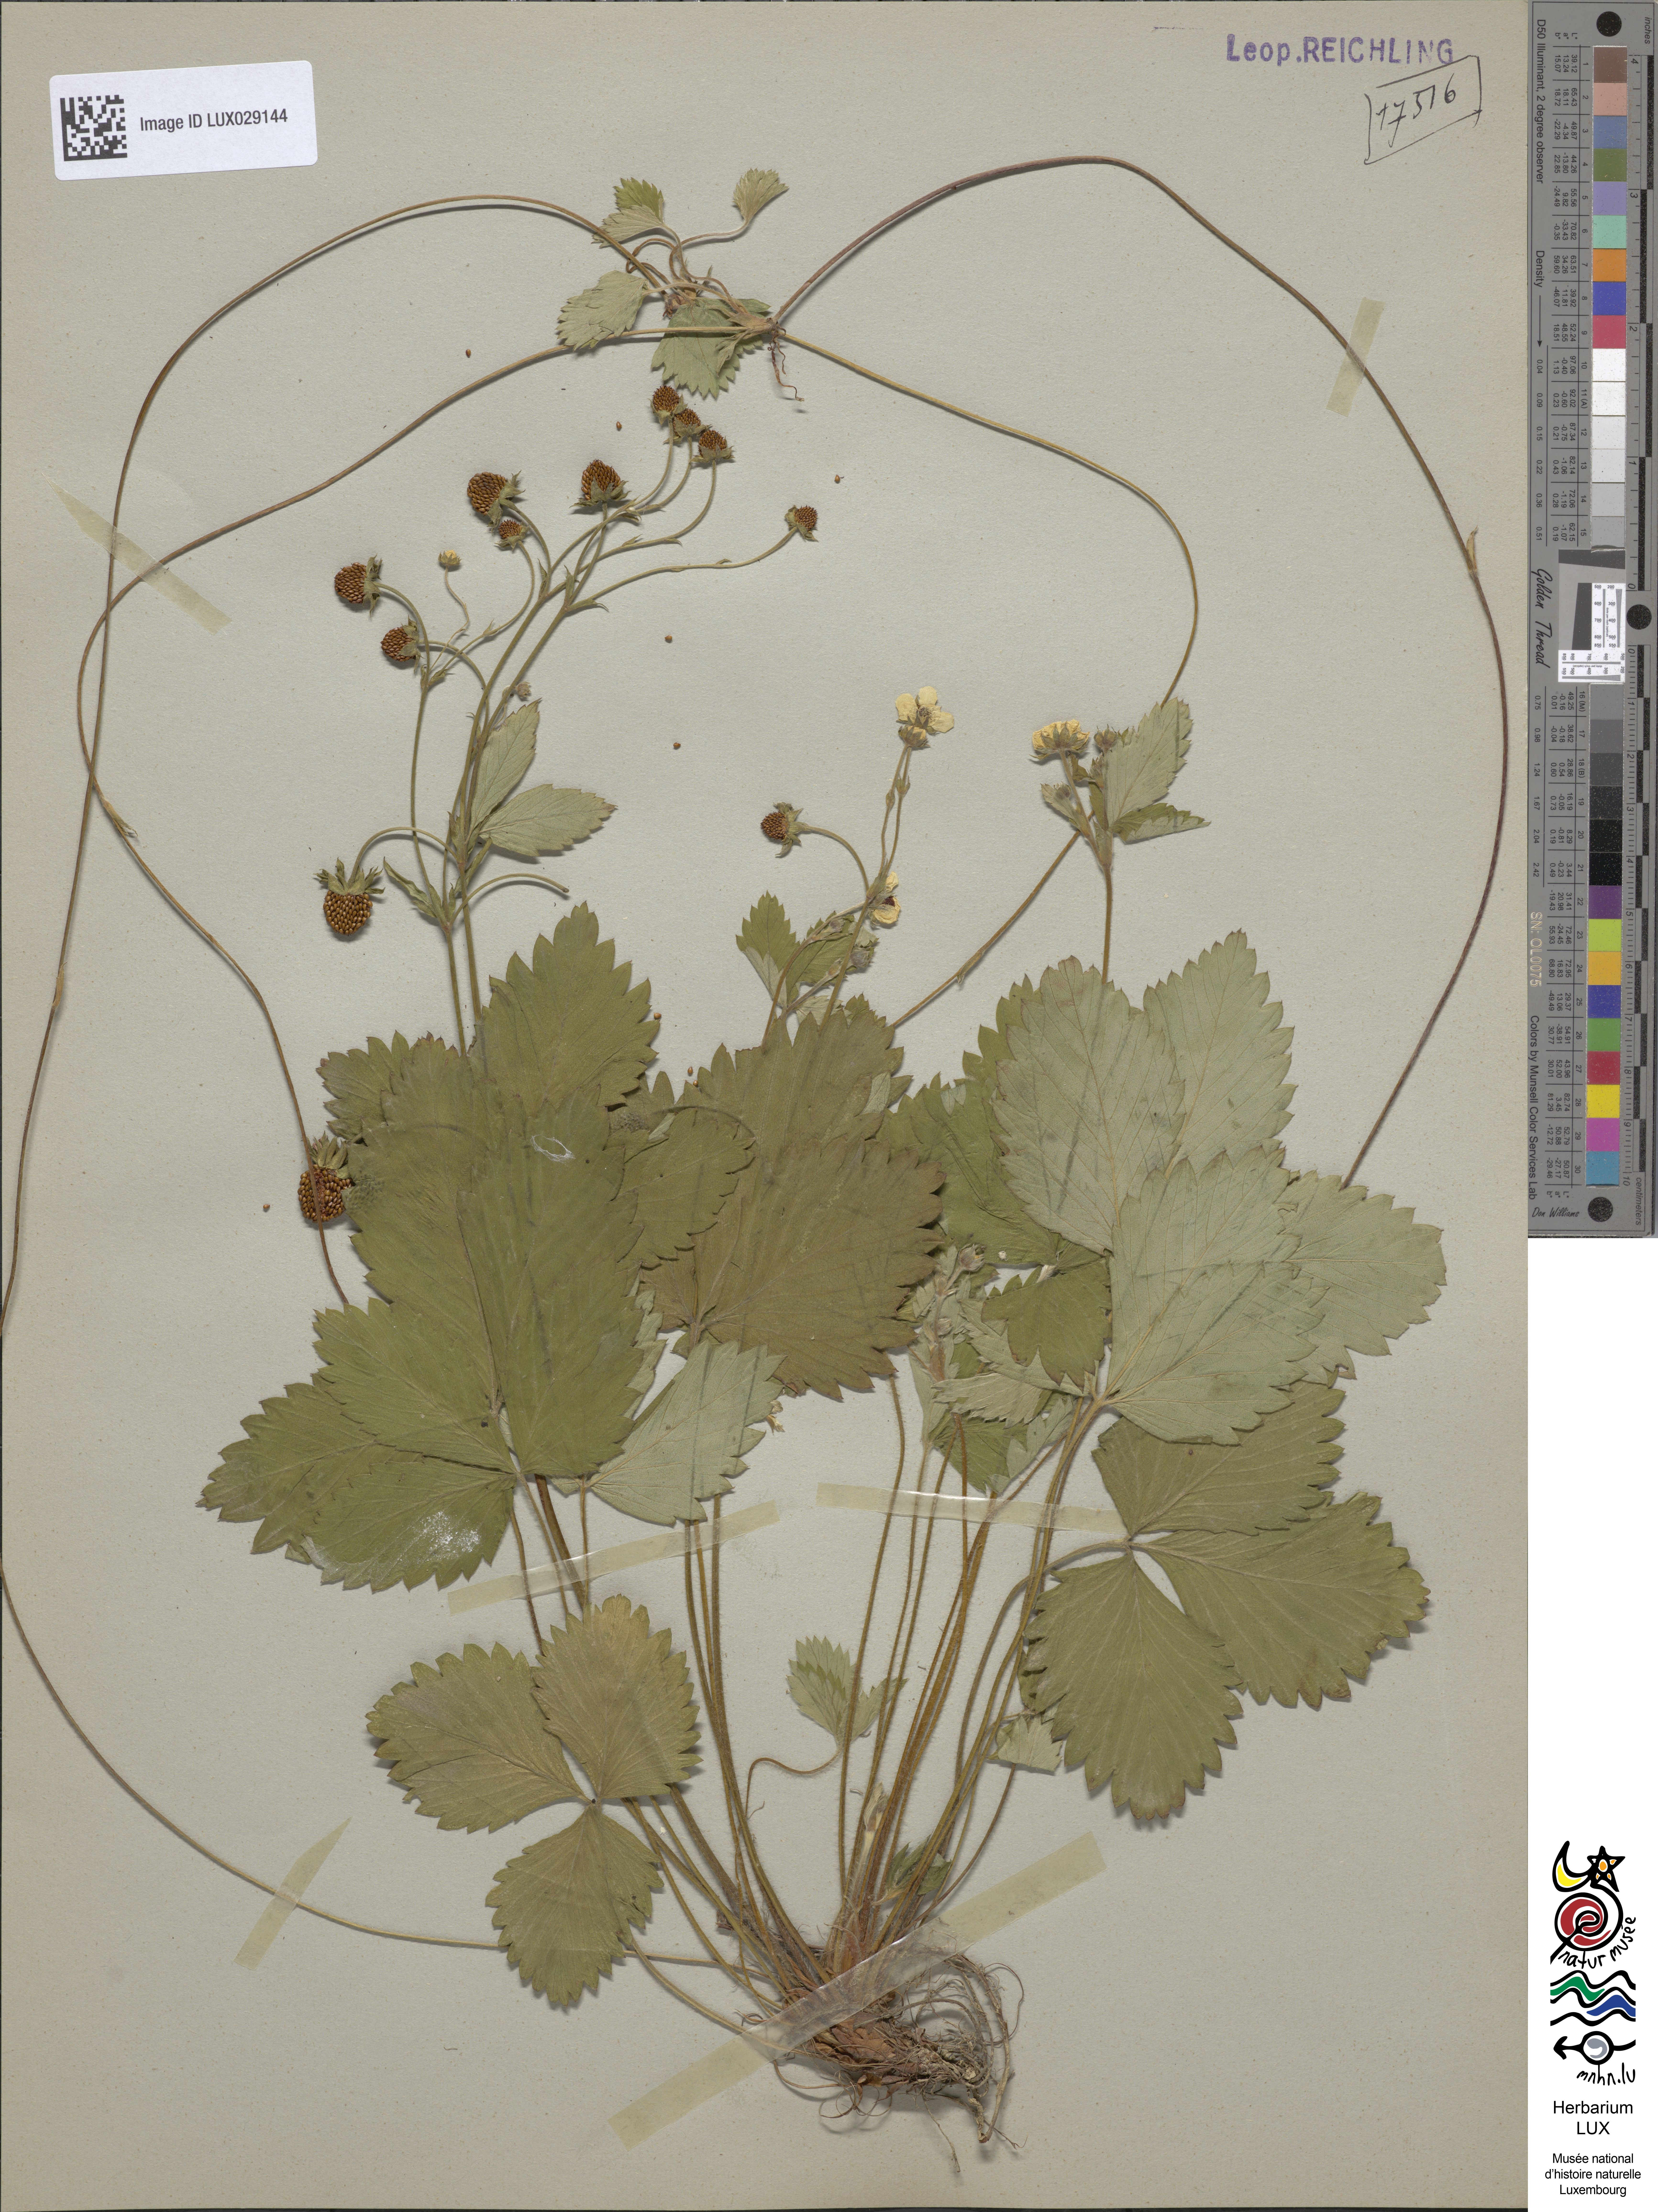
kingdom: Plantae
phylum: Tracheophyta
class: Magnoliopsida
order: Rosales
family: Rosaceae
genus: Fragaria
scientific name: Fragaria vesca
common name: Wild strawberry
